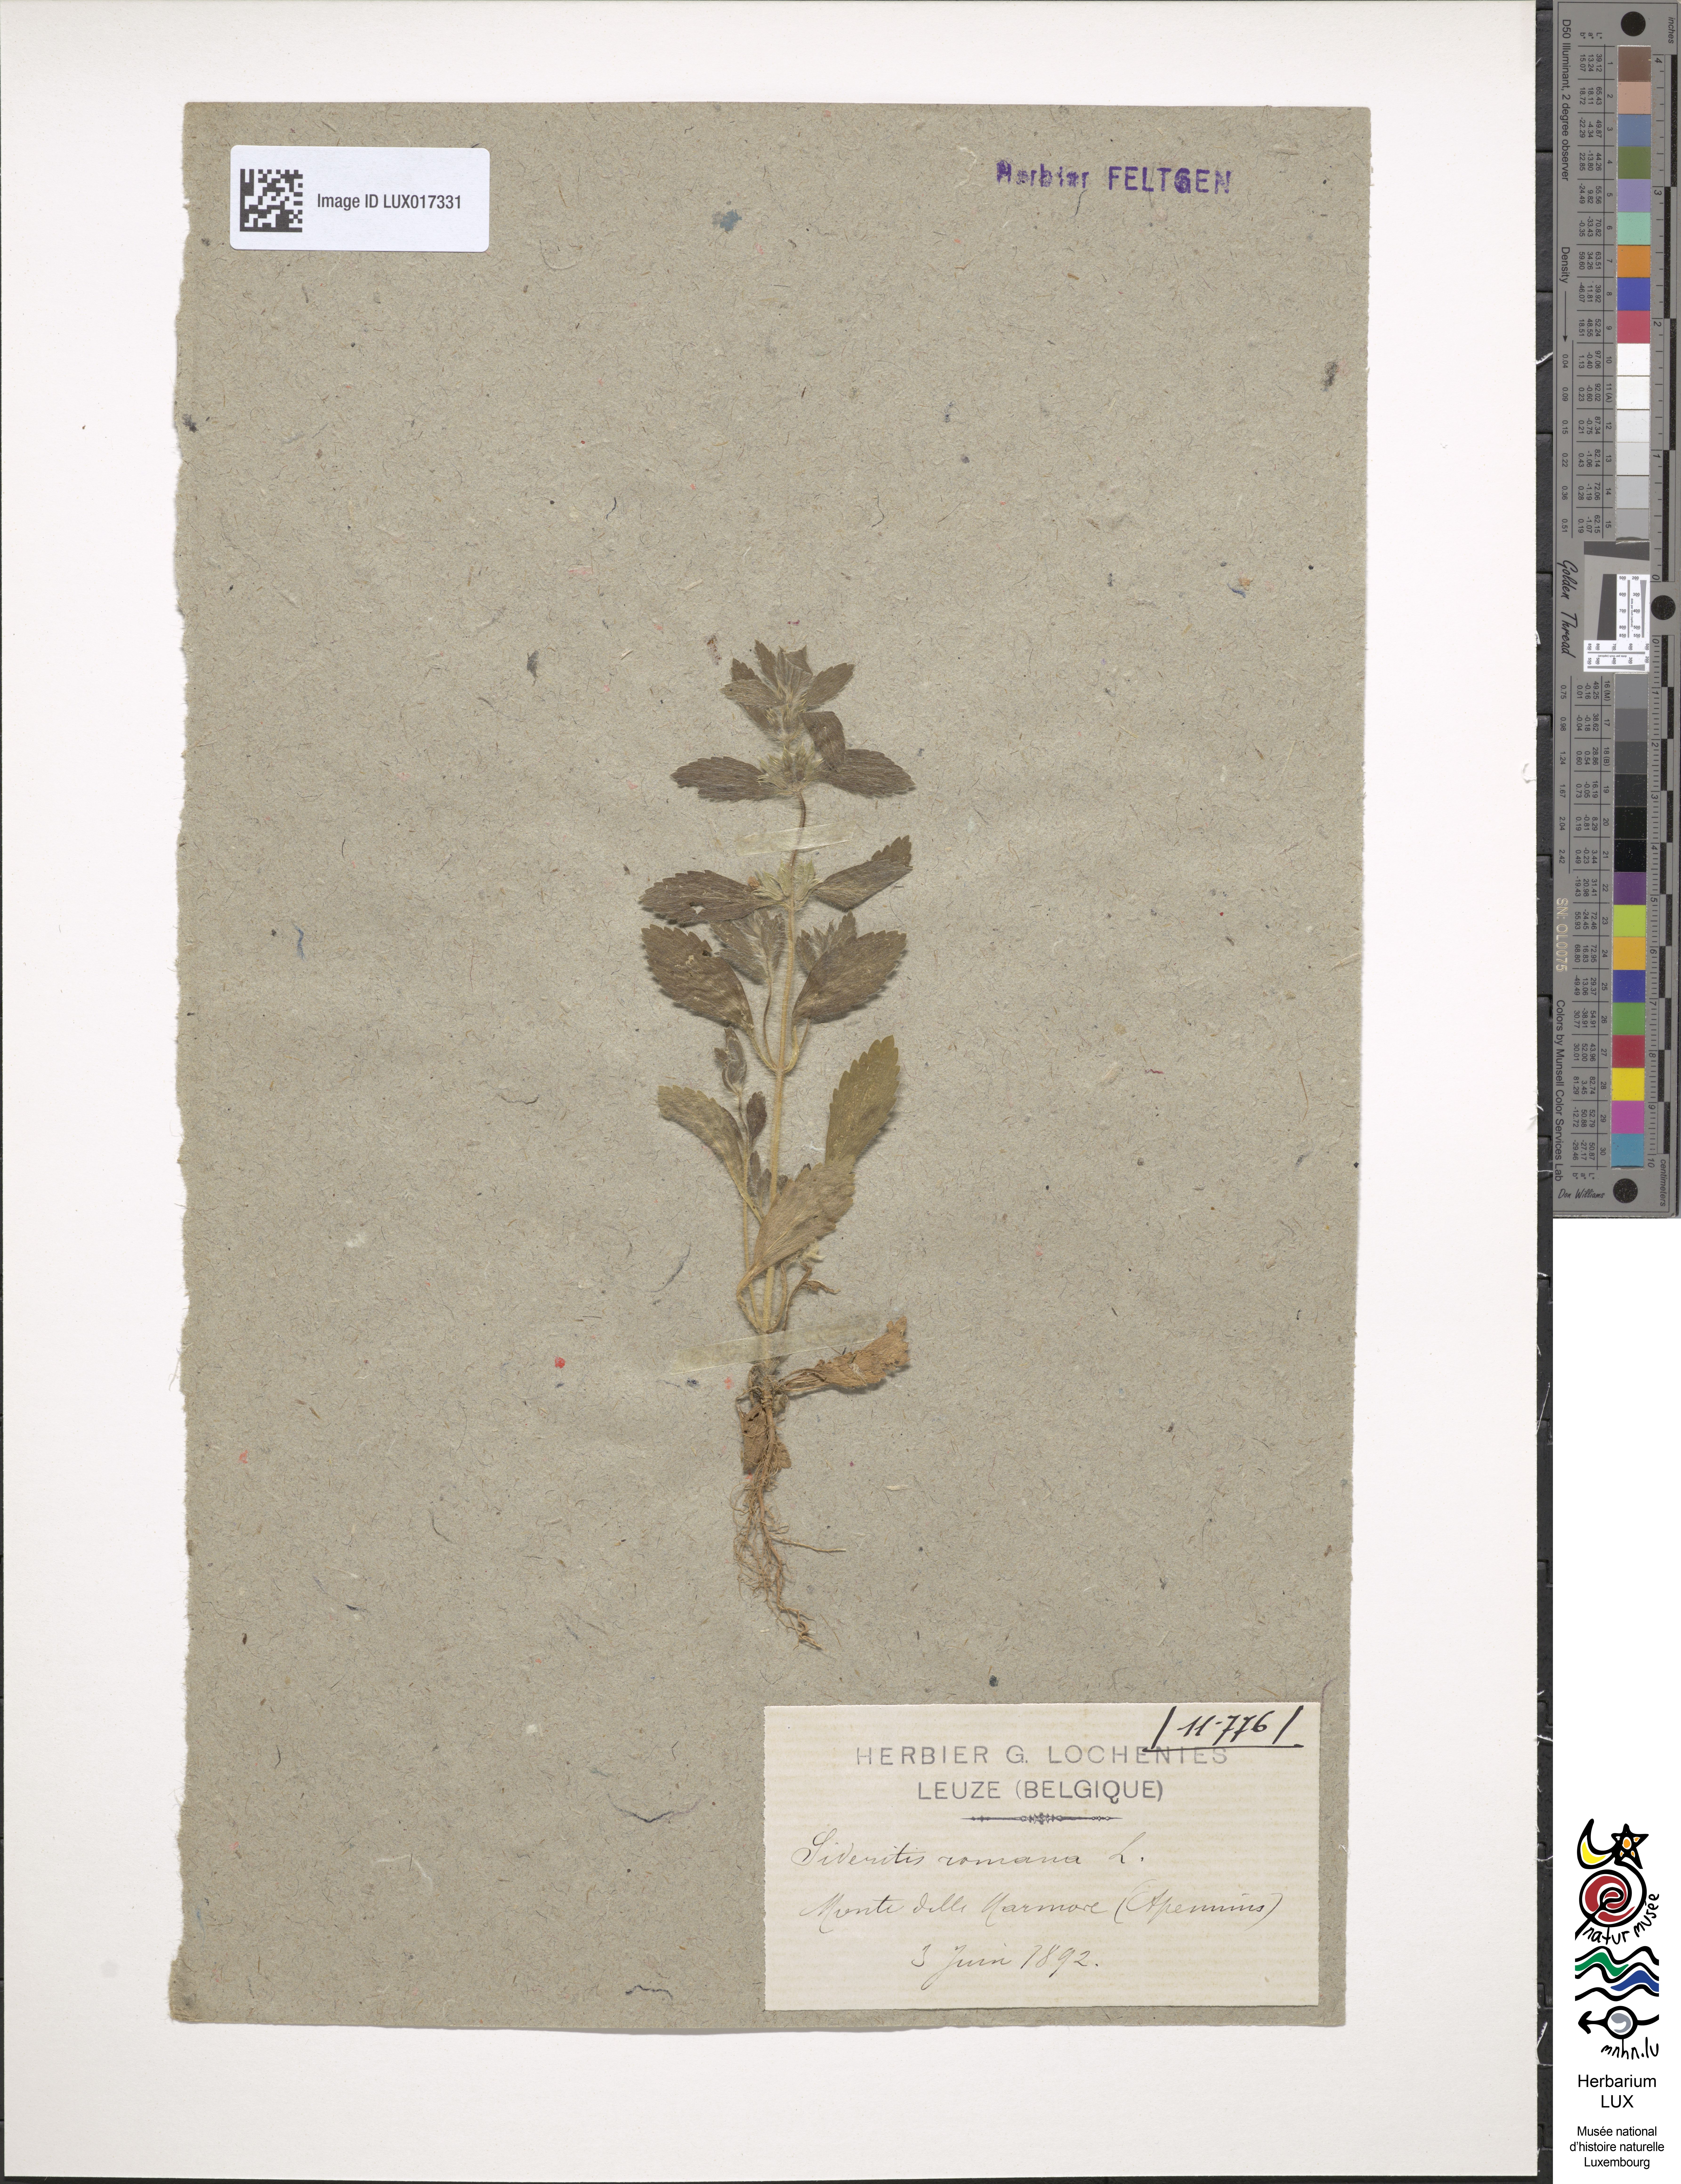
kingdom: Plantae
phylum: Tracheophyta
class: Magnoliopsida
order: Lamiales
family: Lamiaceae
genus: Sideritis
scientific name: Sideritis romana
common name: Simplebeak ironwort
